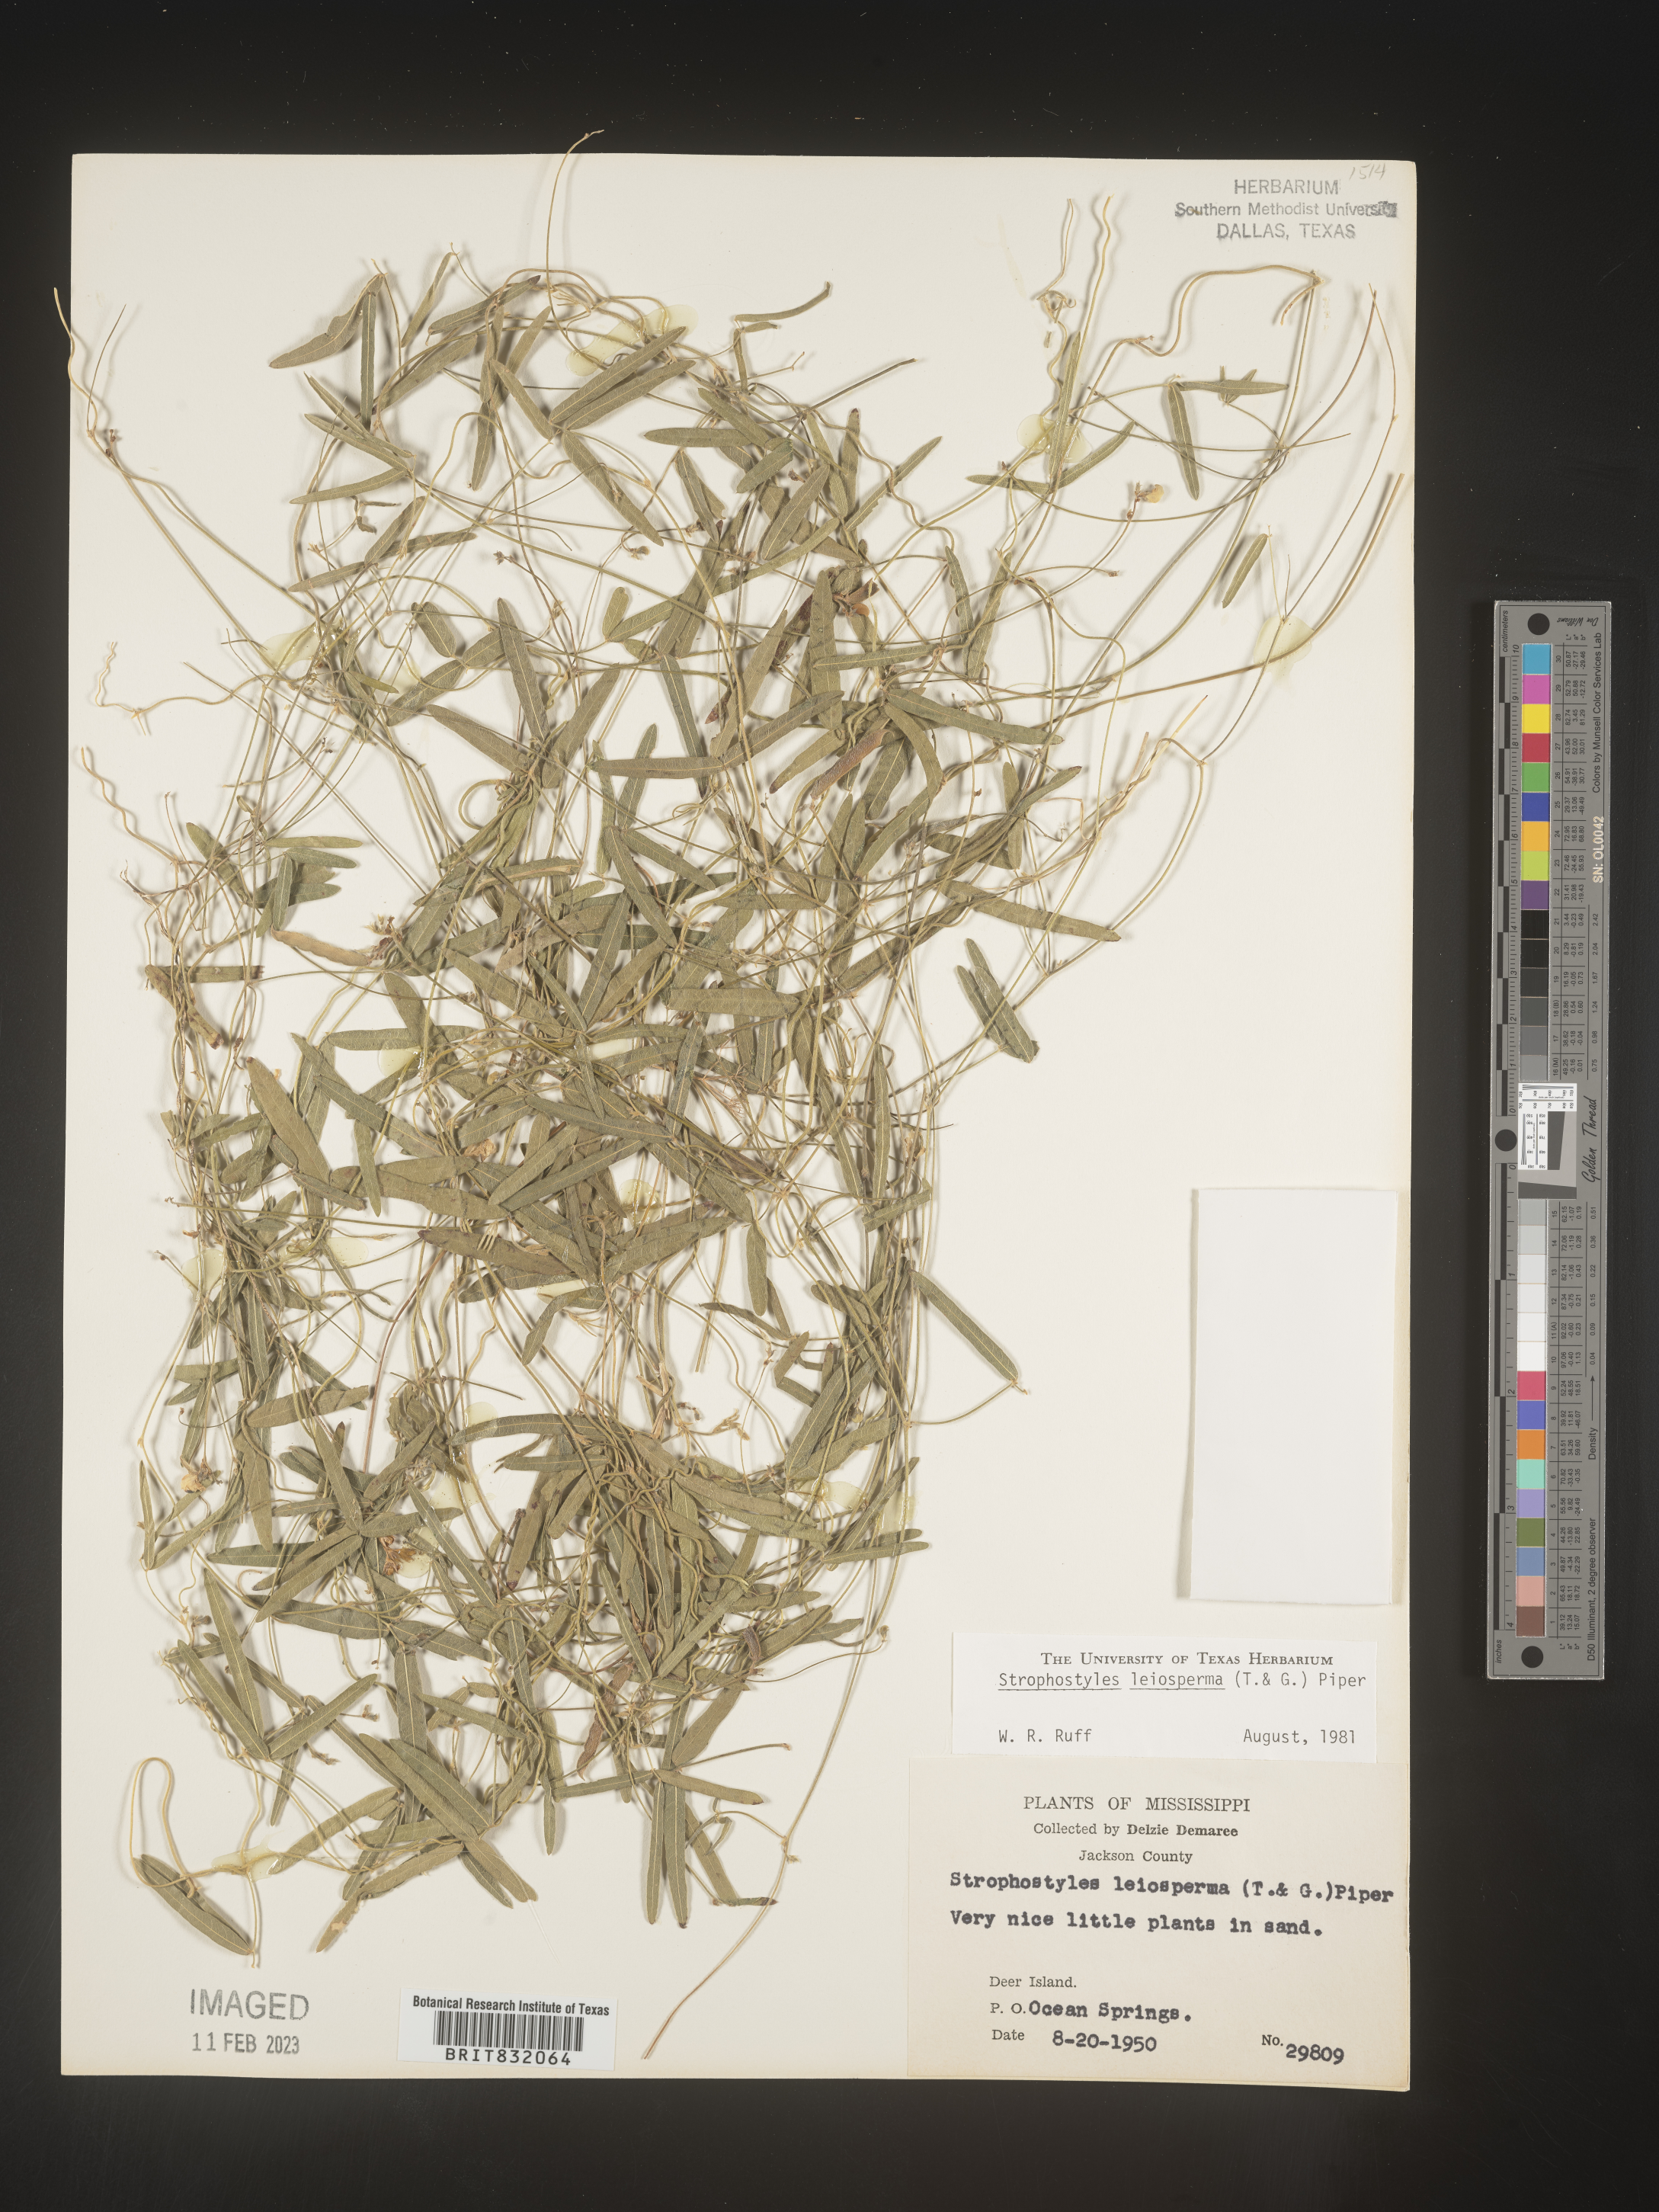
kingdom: Plantae
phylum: Tracheophyta
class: Magnoliopsida
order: Fabales
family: Fabaceae
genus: Strophostyles
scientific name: Strophostyles leiosperma
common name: Smooth-seed wild bean
